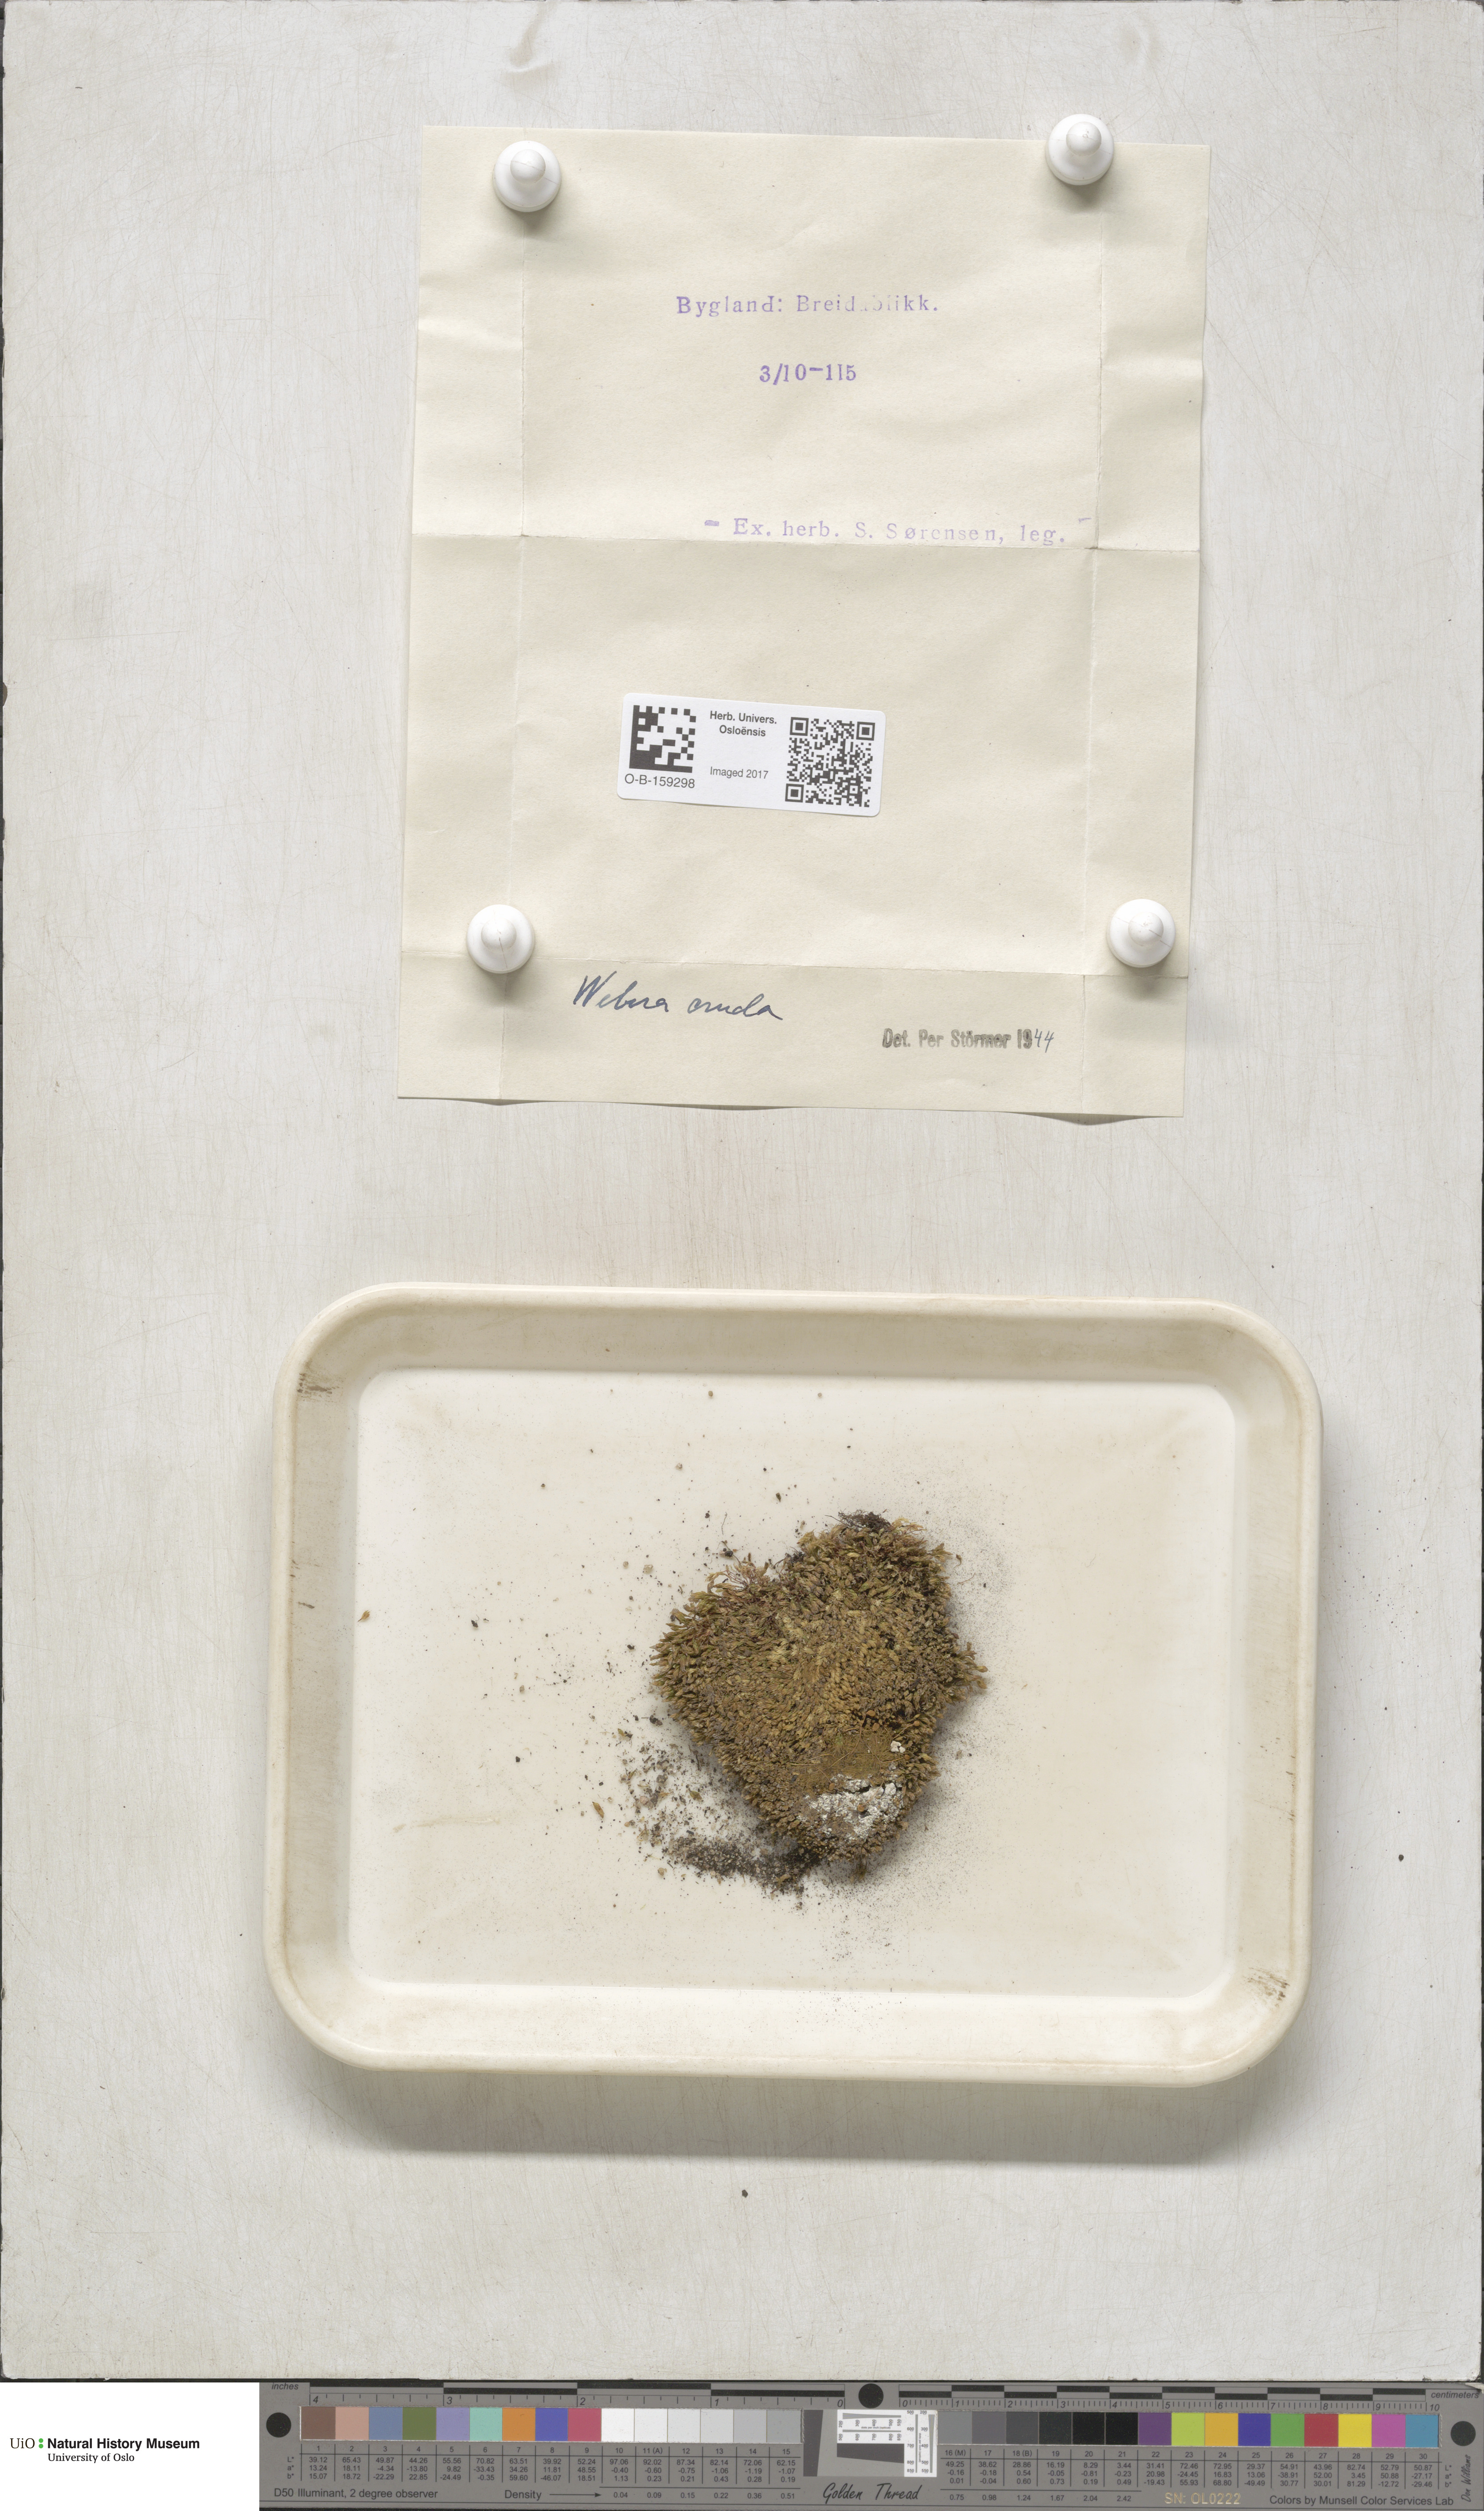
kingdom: Plantae
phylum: Bryophyta
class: Bryopsida
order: Bryales
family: Mniaceae
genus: Pohlia
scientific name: Pohlia cruda
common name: Opal nodding moss
